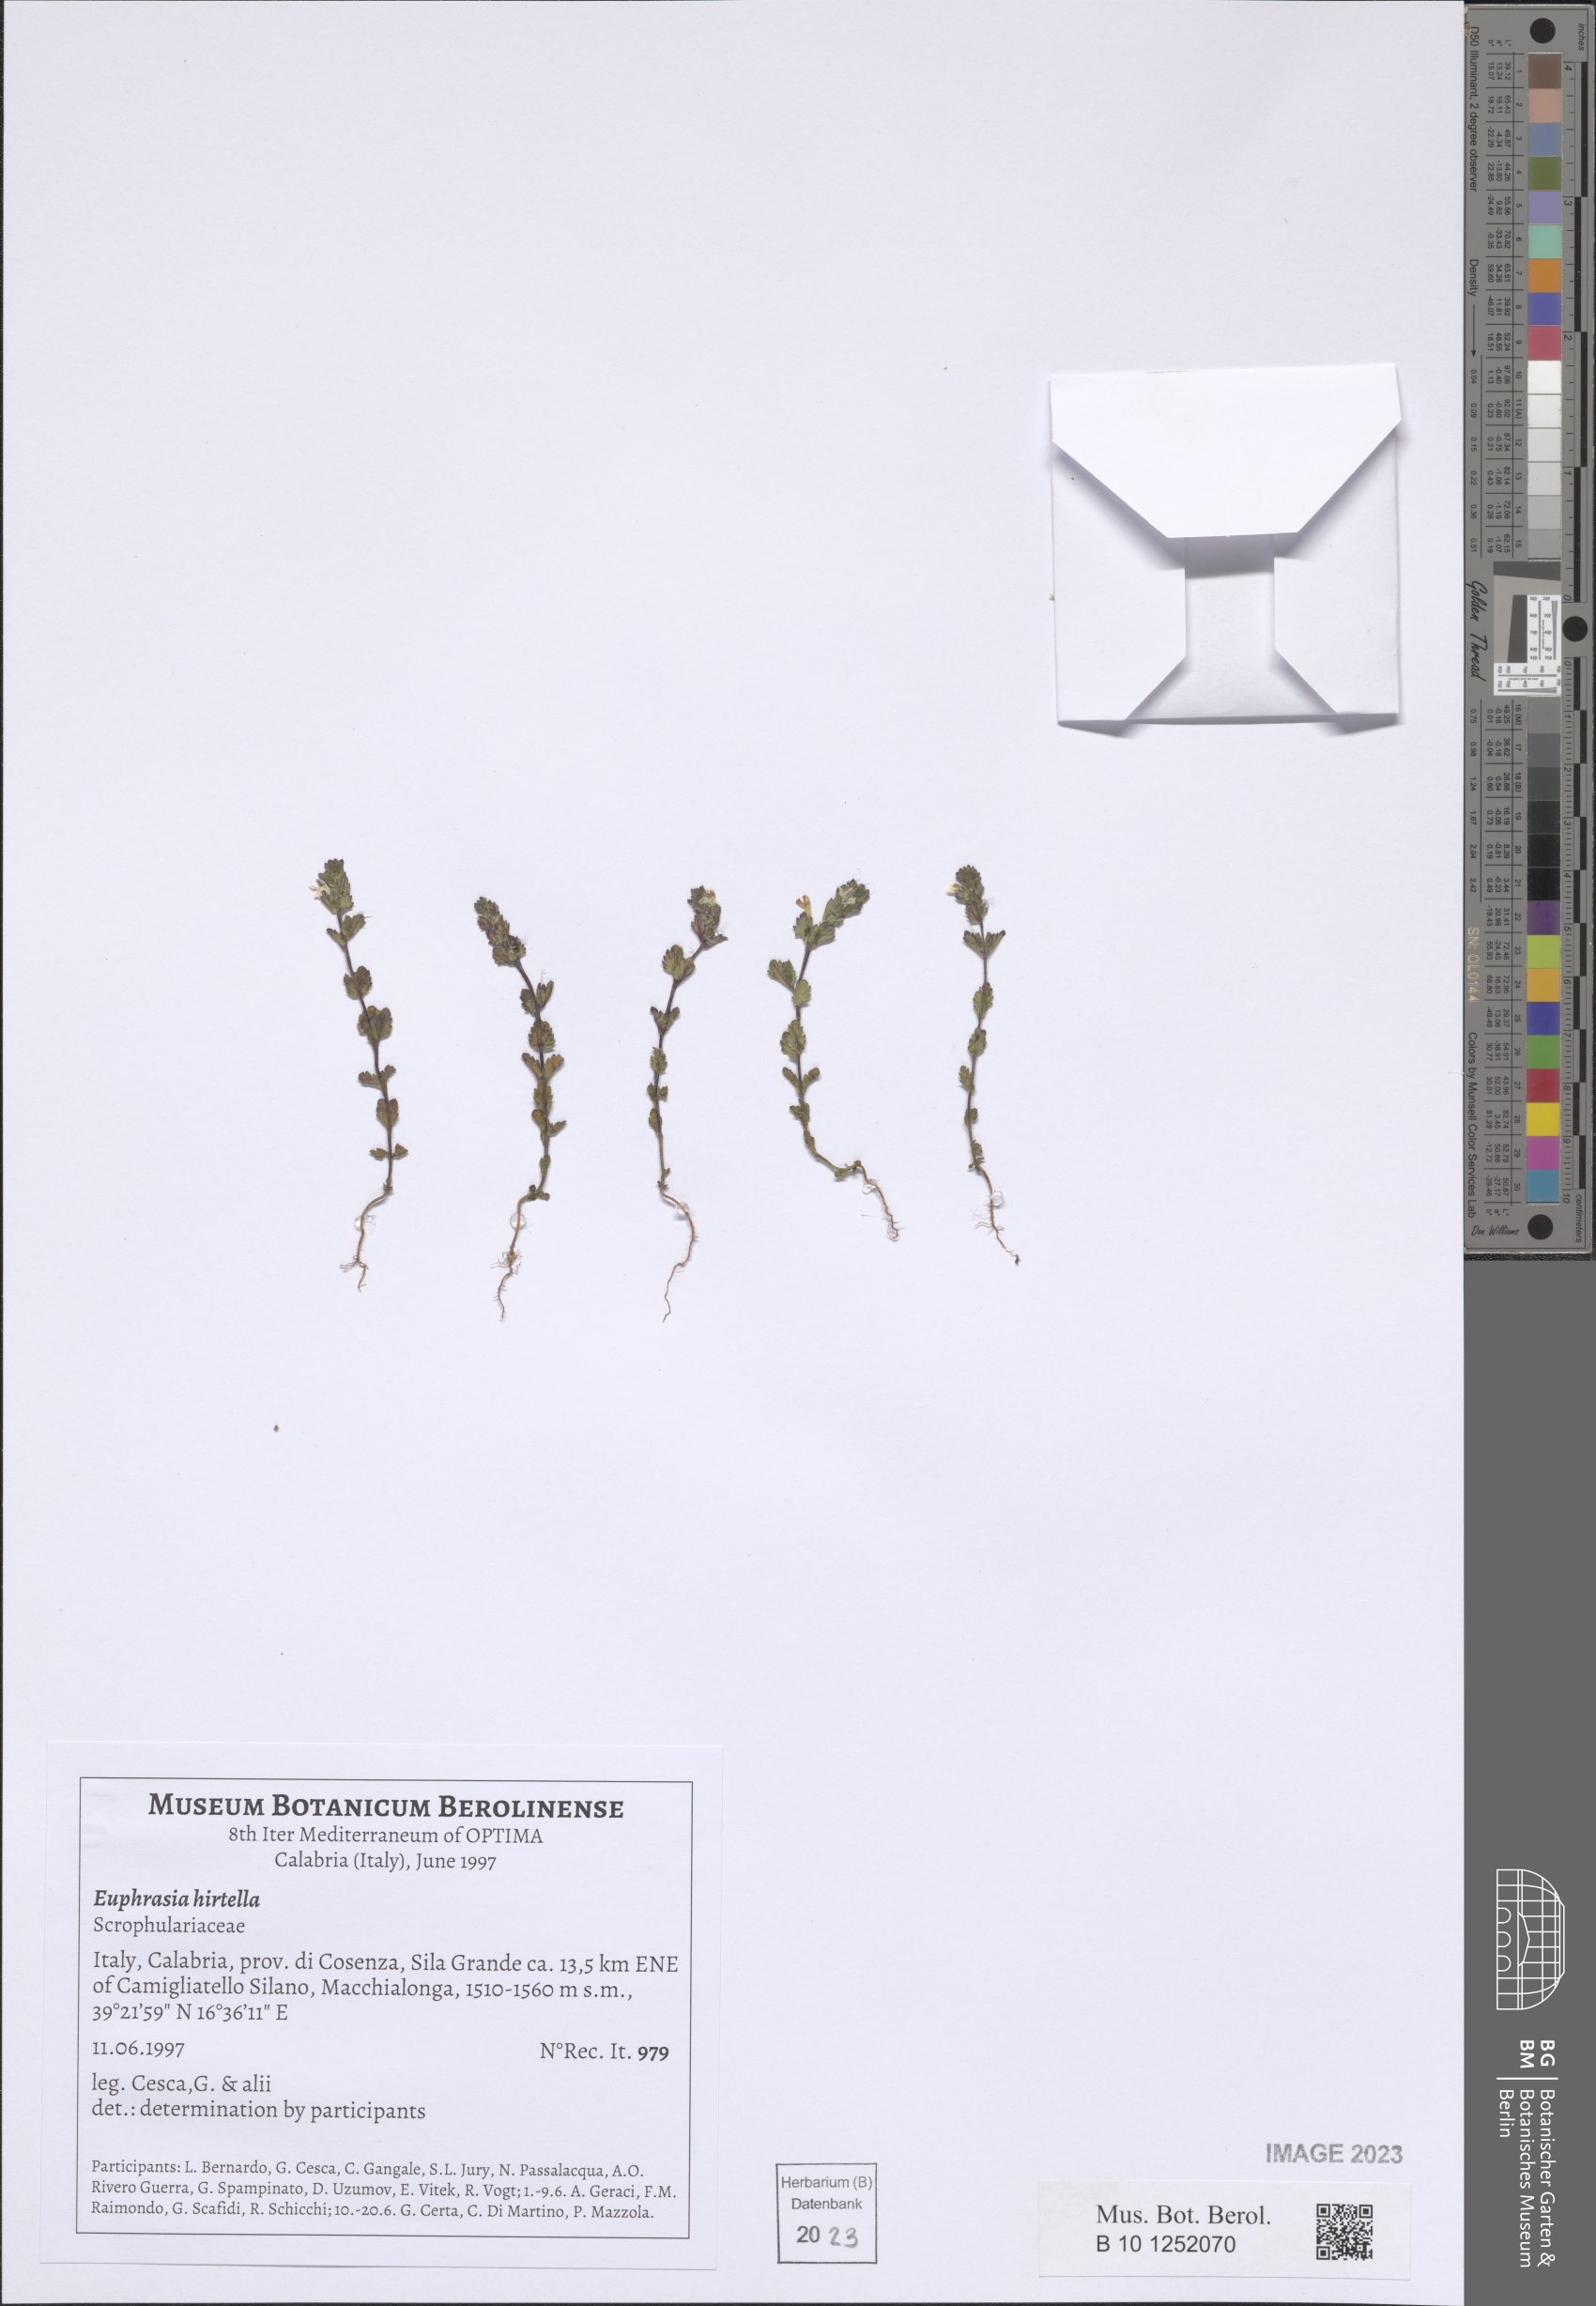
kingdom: Plantae
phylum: Tracheophyta
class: Magnoliopsida
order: Lamiales
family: Orobanchaceae
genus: Euphrasia
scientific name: Euphrasia hirtella
